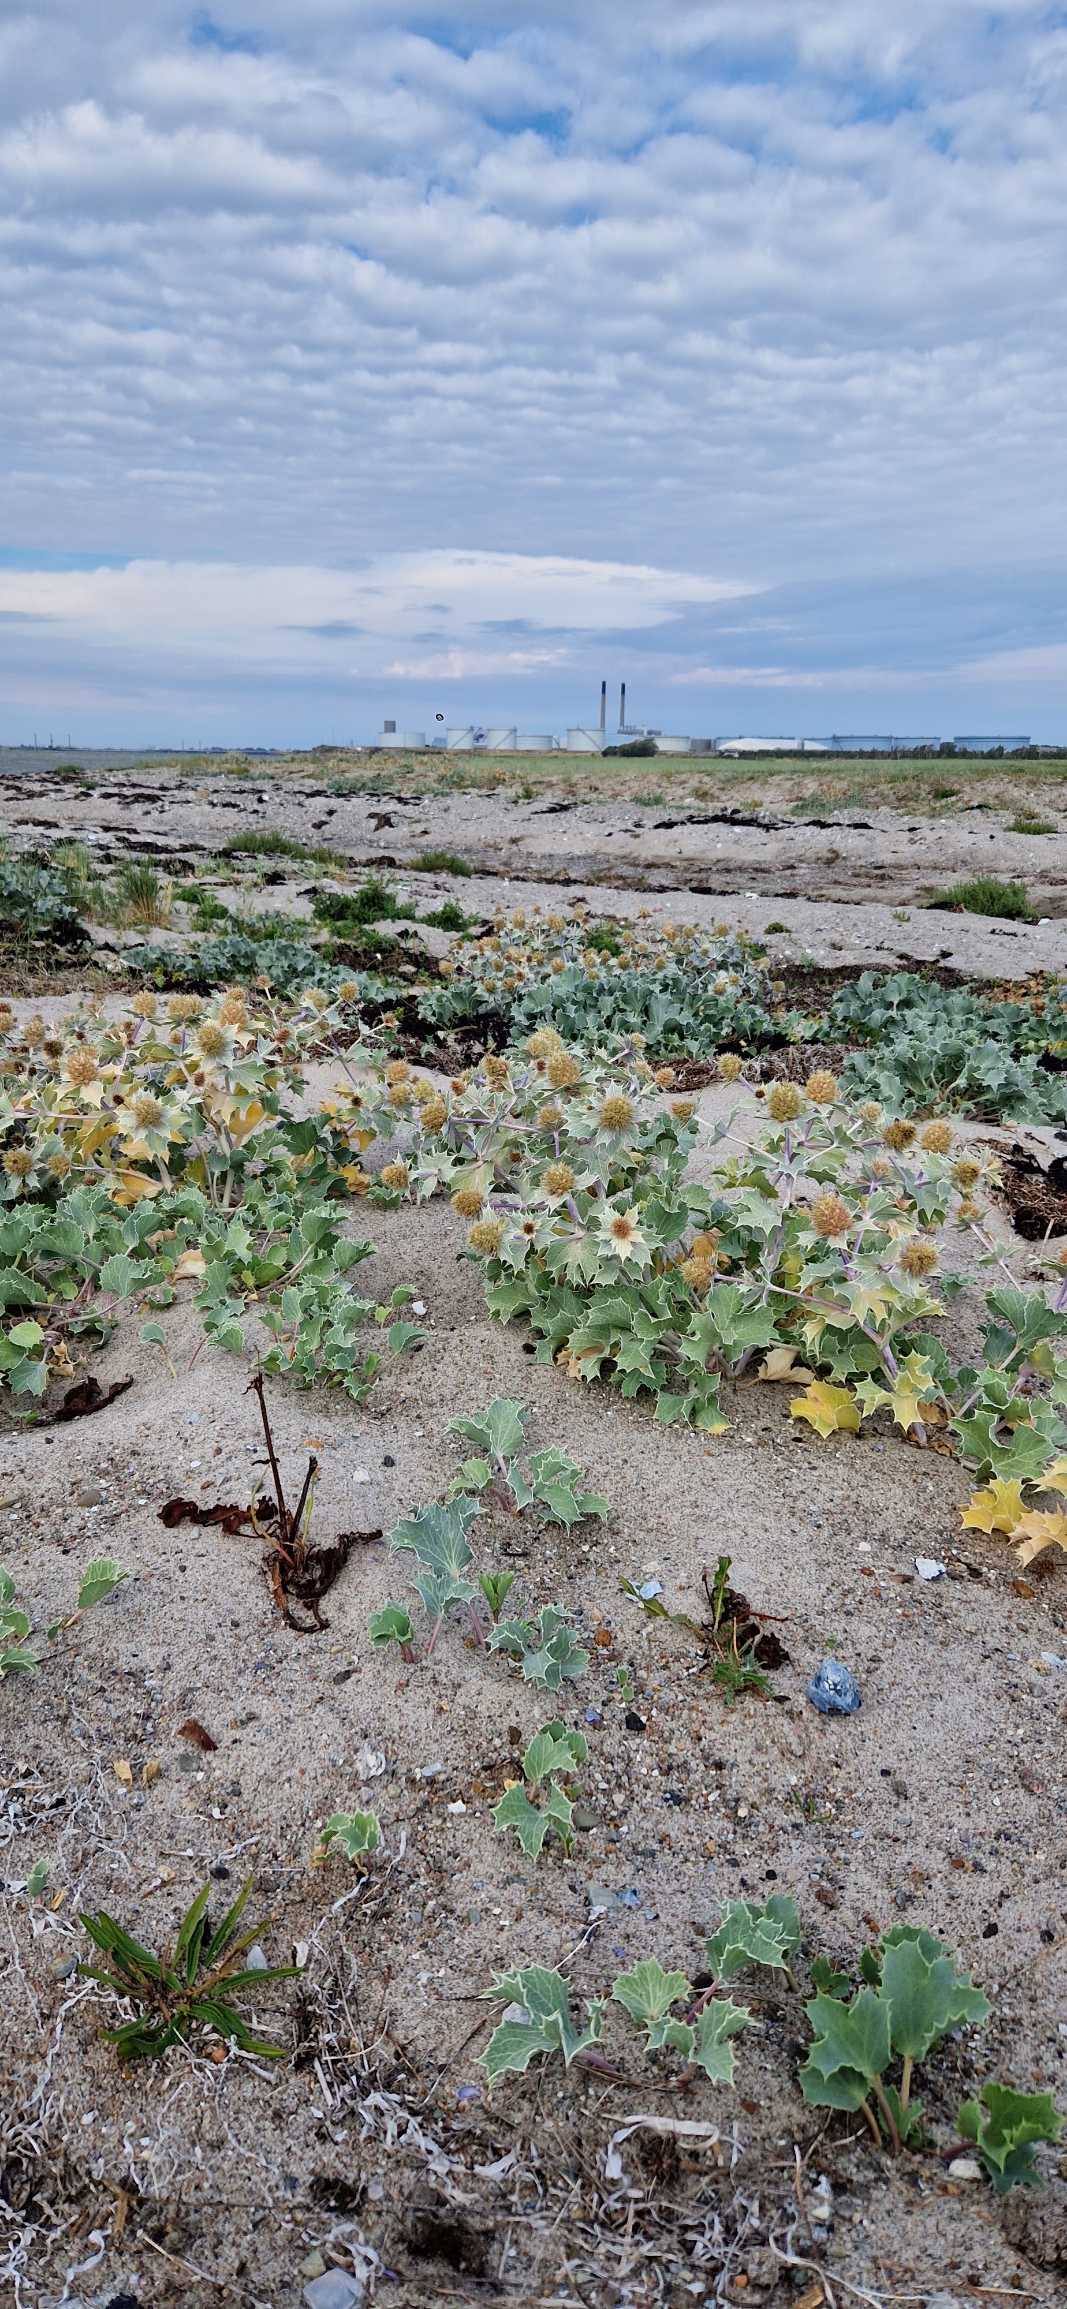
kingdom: Plantae
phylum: Tracheophyta
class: Magnoliopsida
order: Apiales
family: Apiaceae
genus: Eryngium
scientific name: Eryngium maritimum
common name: Strand-mandstro
